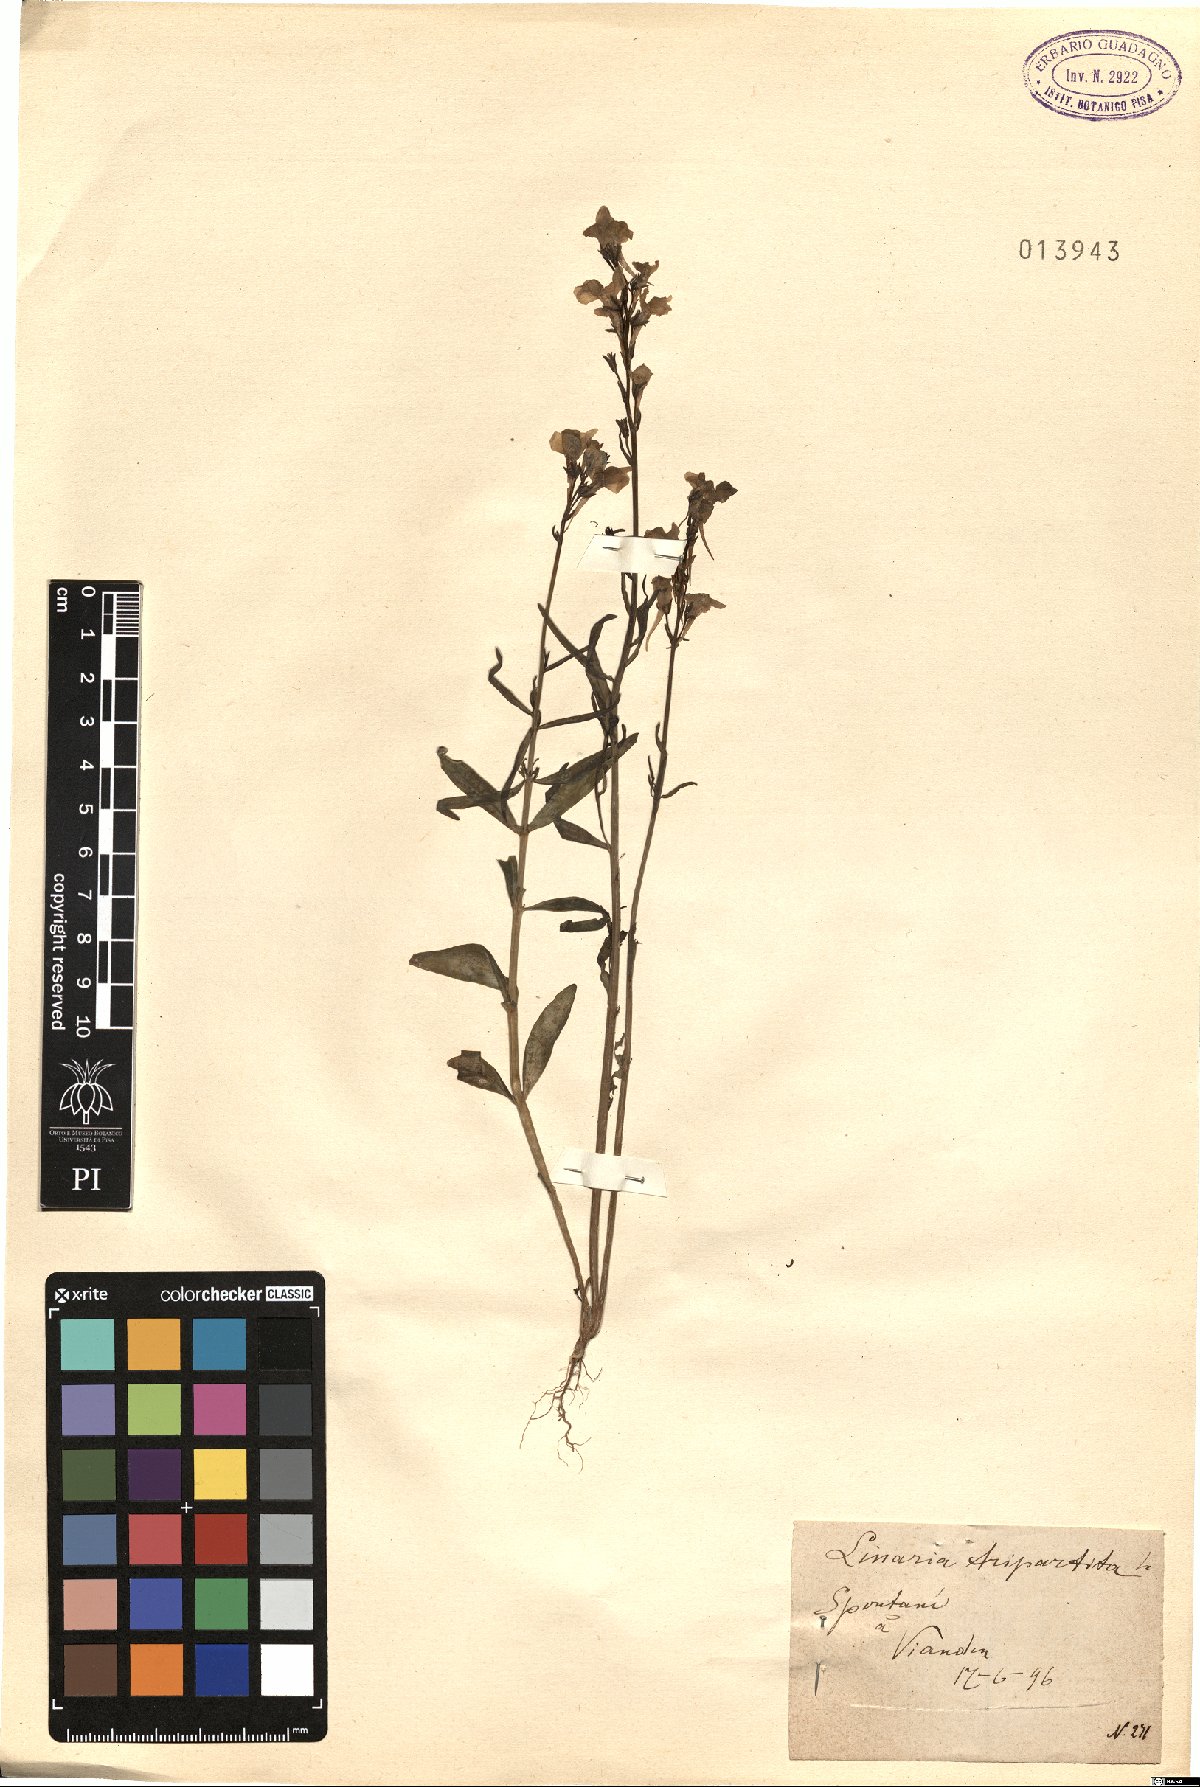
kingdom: Plantae
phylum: Tracheophyta
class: Magnoliopsida
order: Lamiales
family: Scrophulariaceae
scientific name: Scrophulariaceae
